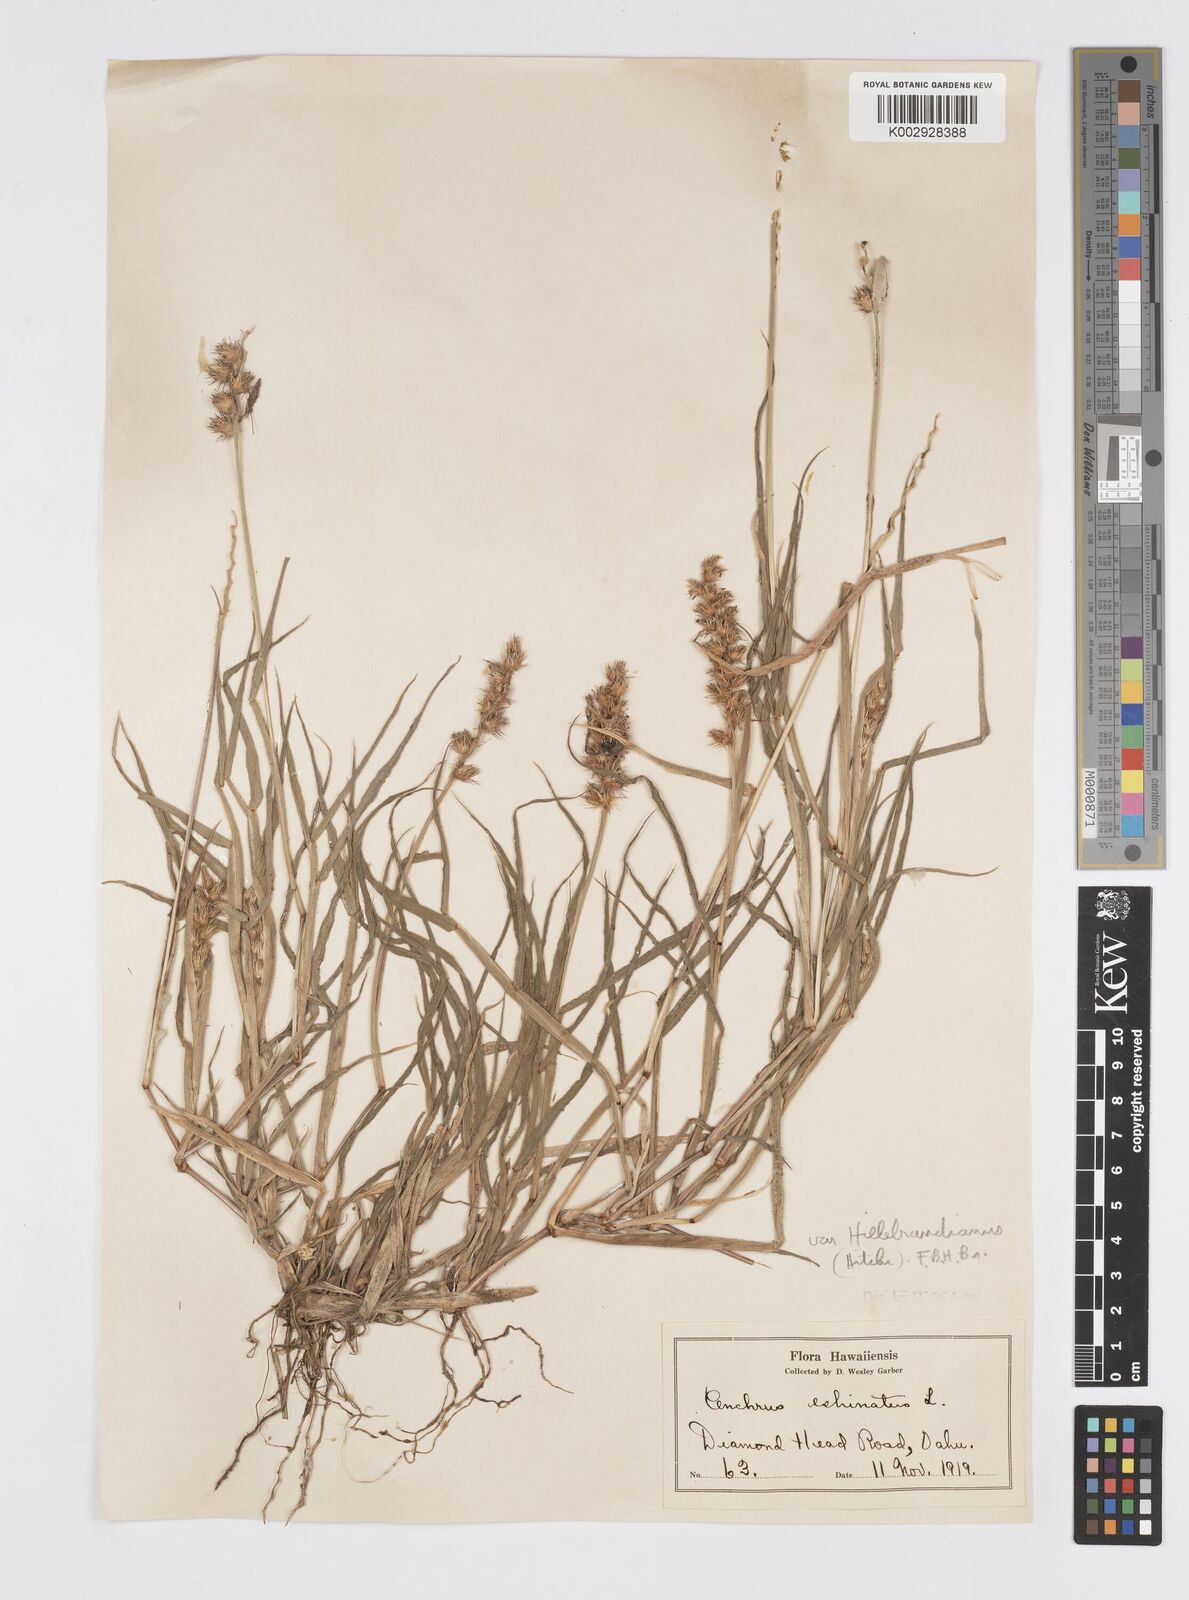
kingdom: Plantae
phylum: Tracheophyta
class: Liliopsida
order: Poales
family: Poaceae
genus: Cenchrus
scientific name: Cenchrus echinatus
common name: Southern sandbur
